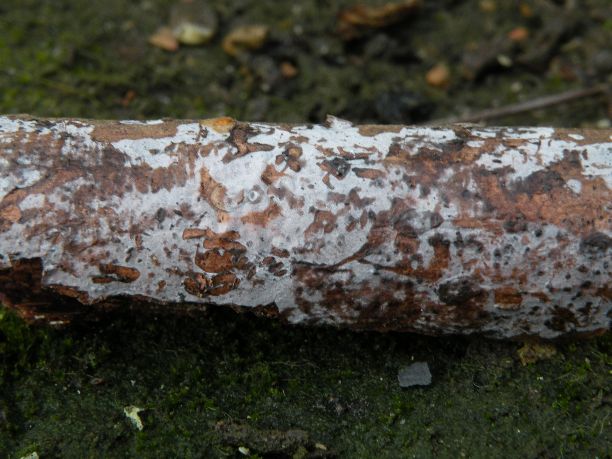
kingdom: Fungi
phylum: Basidiomycota
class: Agaricomycetes
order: Sebacinales
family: Sebacinaceae
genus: Sebacina
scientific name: Sebacina grisea
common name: blågrå bævrehinde
